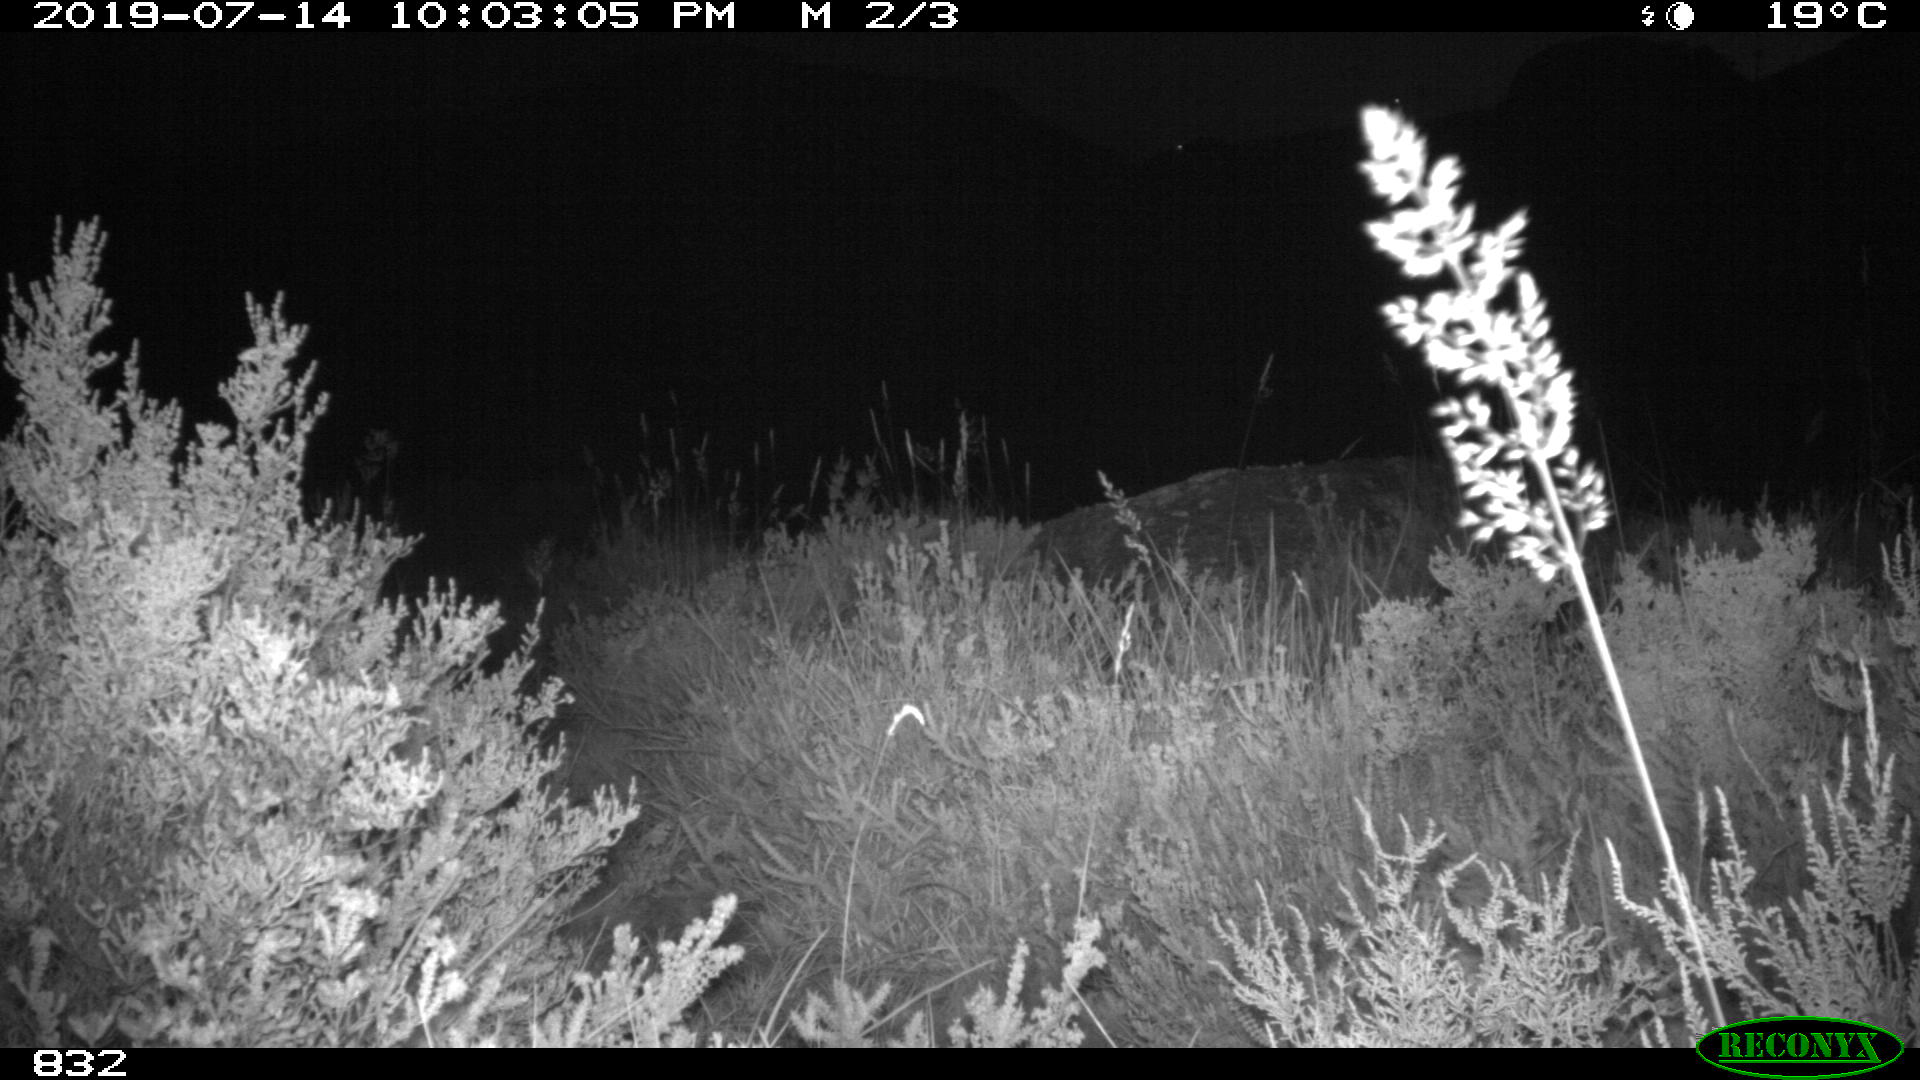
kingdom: Animalia
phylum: Chordata
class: Mammalia
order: Carnivora
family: Canidae
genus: Vulpes
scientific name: Vulpes vulpes
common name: Red fox
